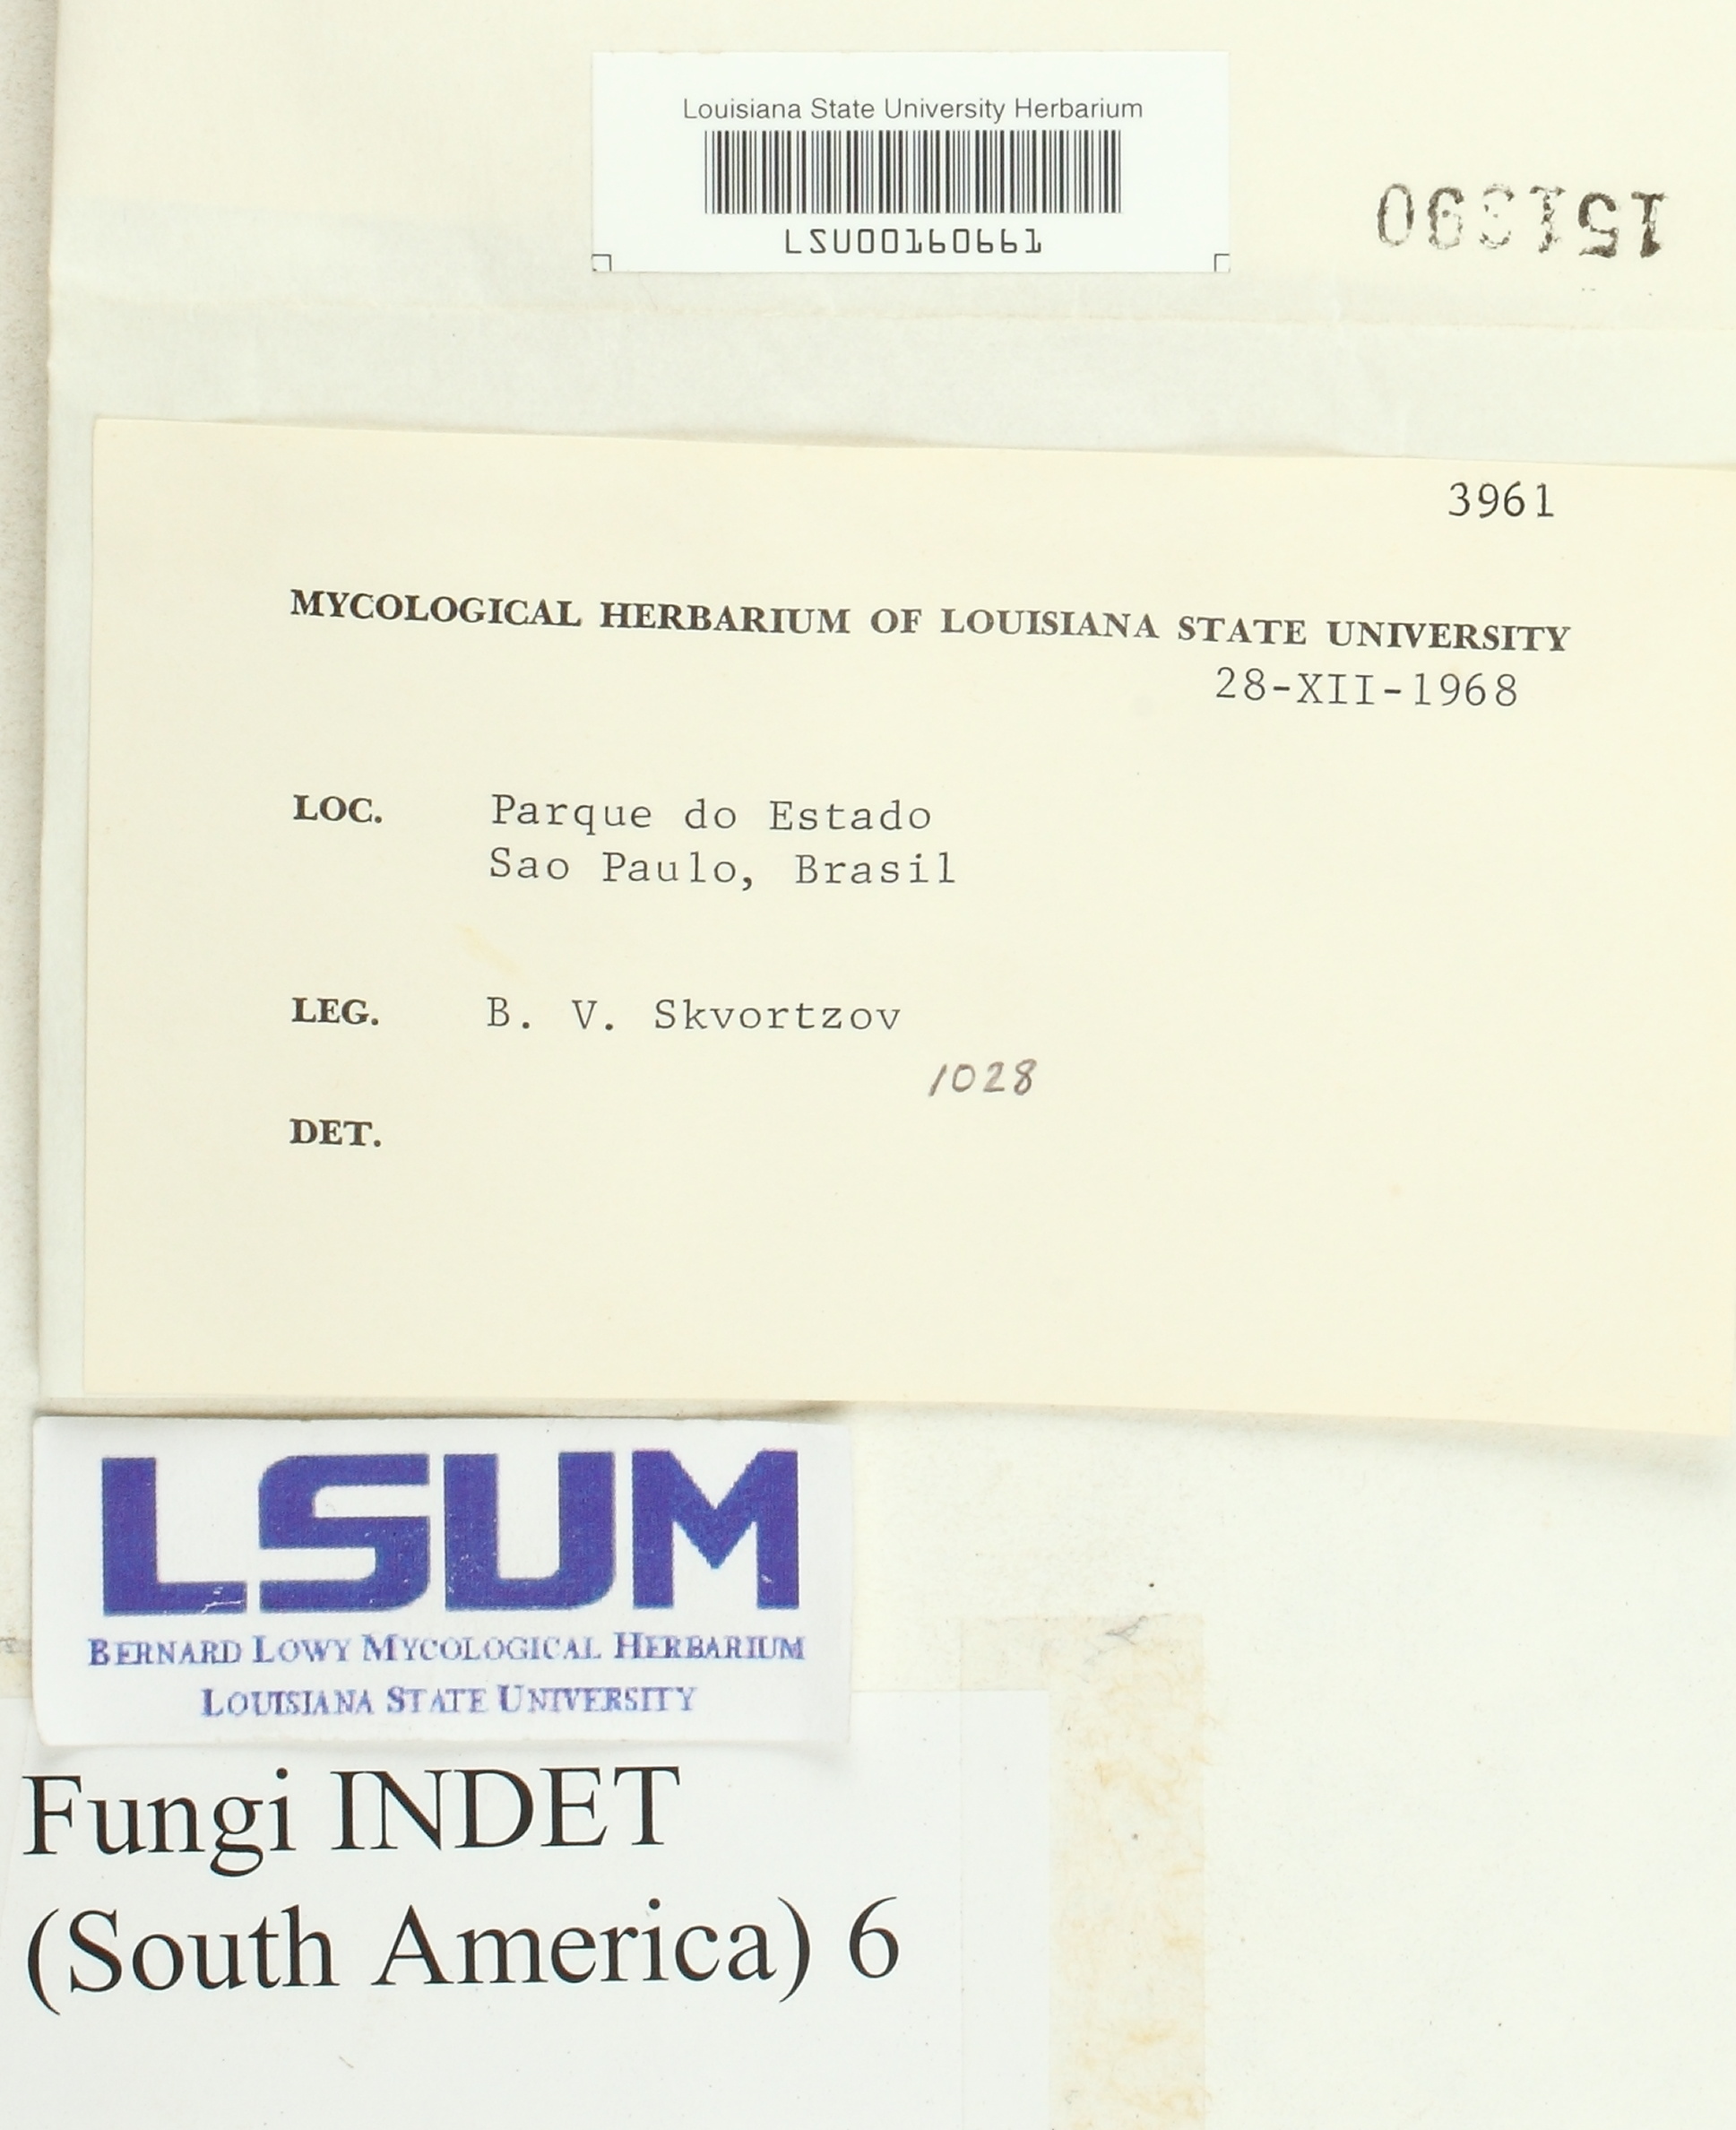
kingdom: Fungi
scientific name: Fungi
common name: Fungi
